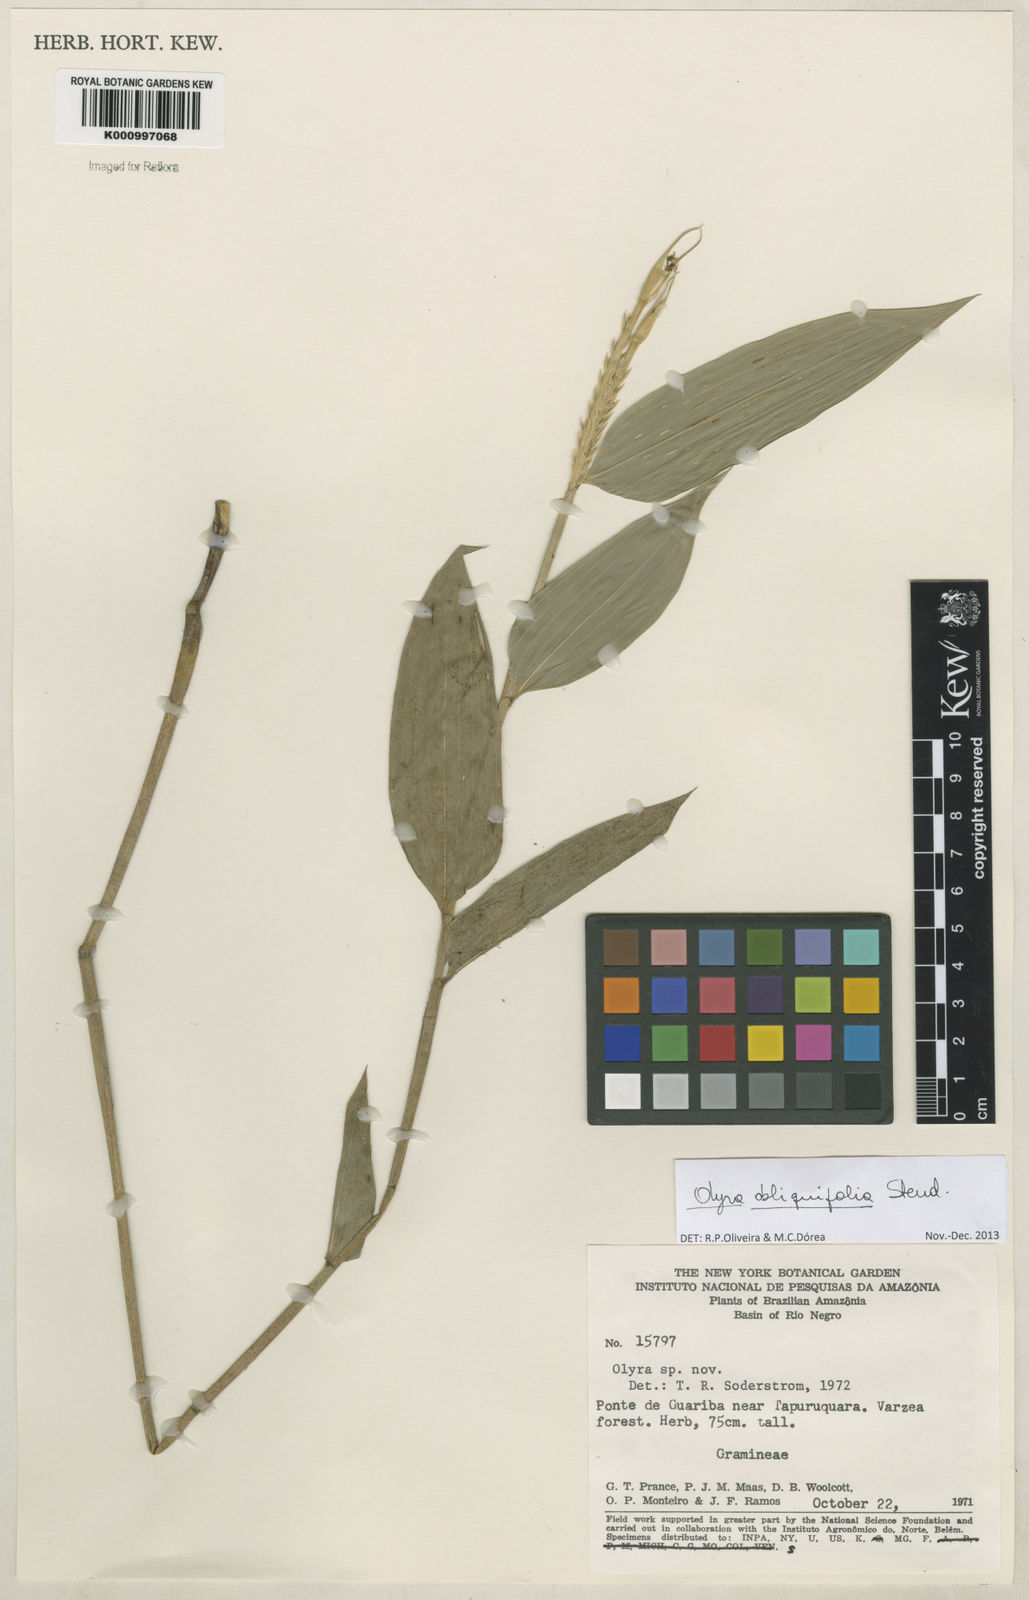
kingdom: Plantae
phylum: Tracheophyta
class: Liliopsida
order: Poales
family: Poaceae
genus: Olyra
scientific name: Olyra obliquifolia
